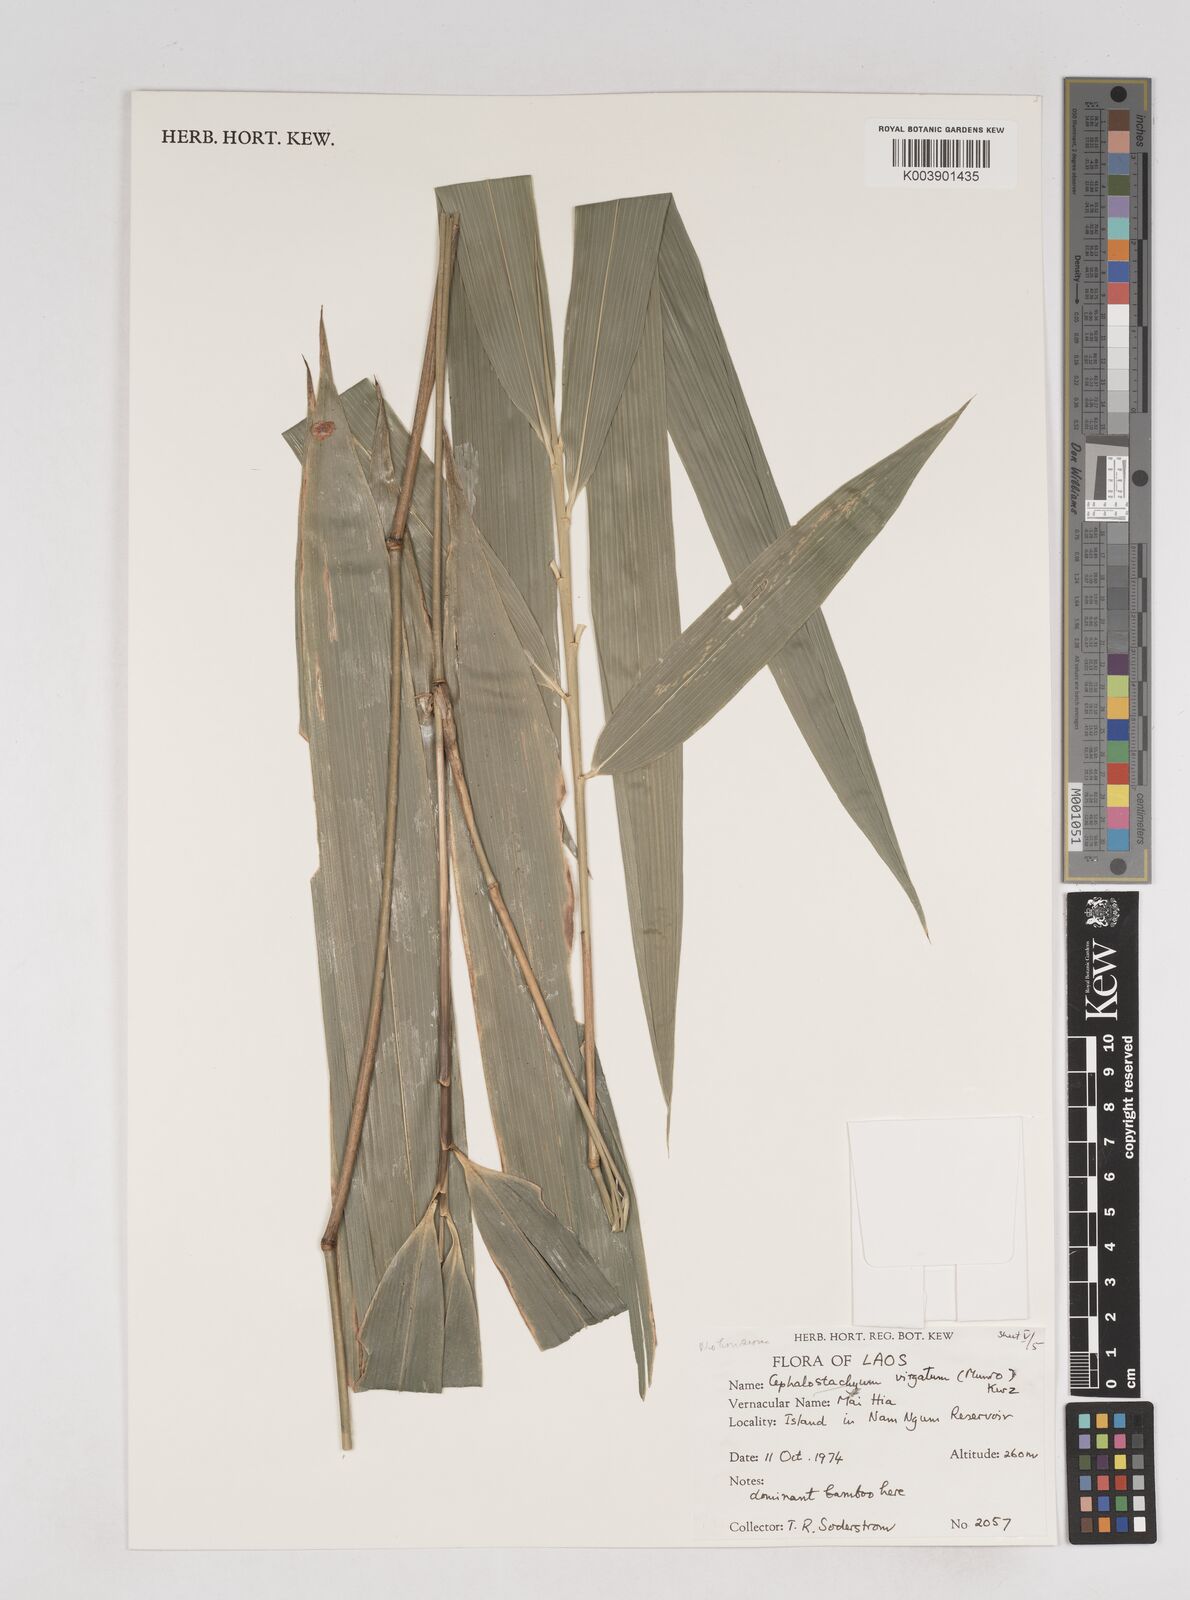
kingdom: Plantae
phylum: Tracheophyta
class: Liliopsida
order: Poales
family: Poaceae
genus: Schizostachyum
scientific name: Schizostachyum
